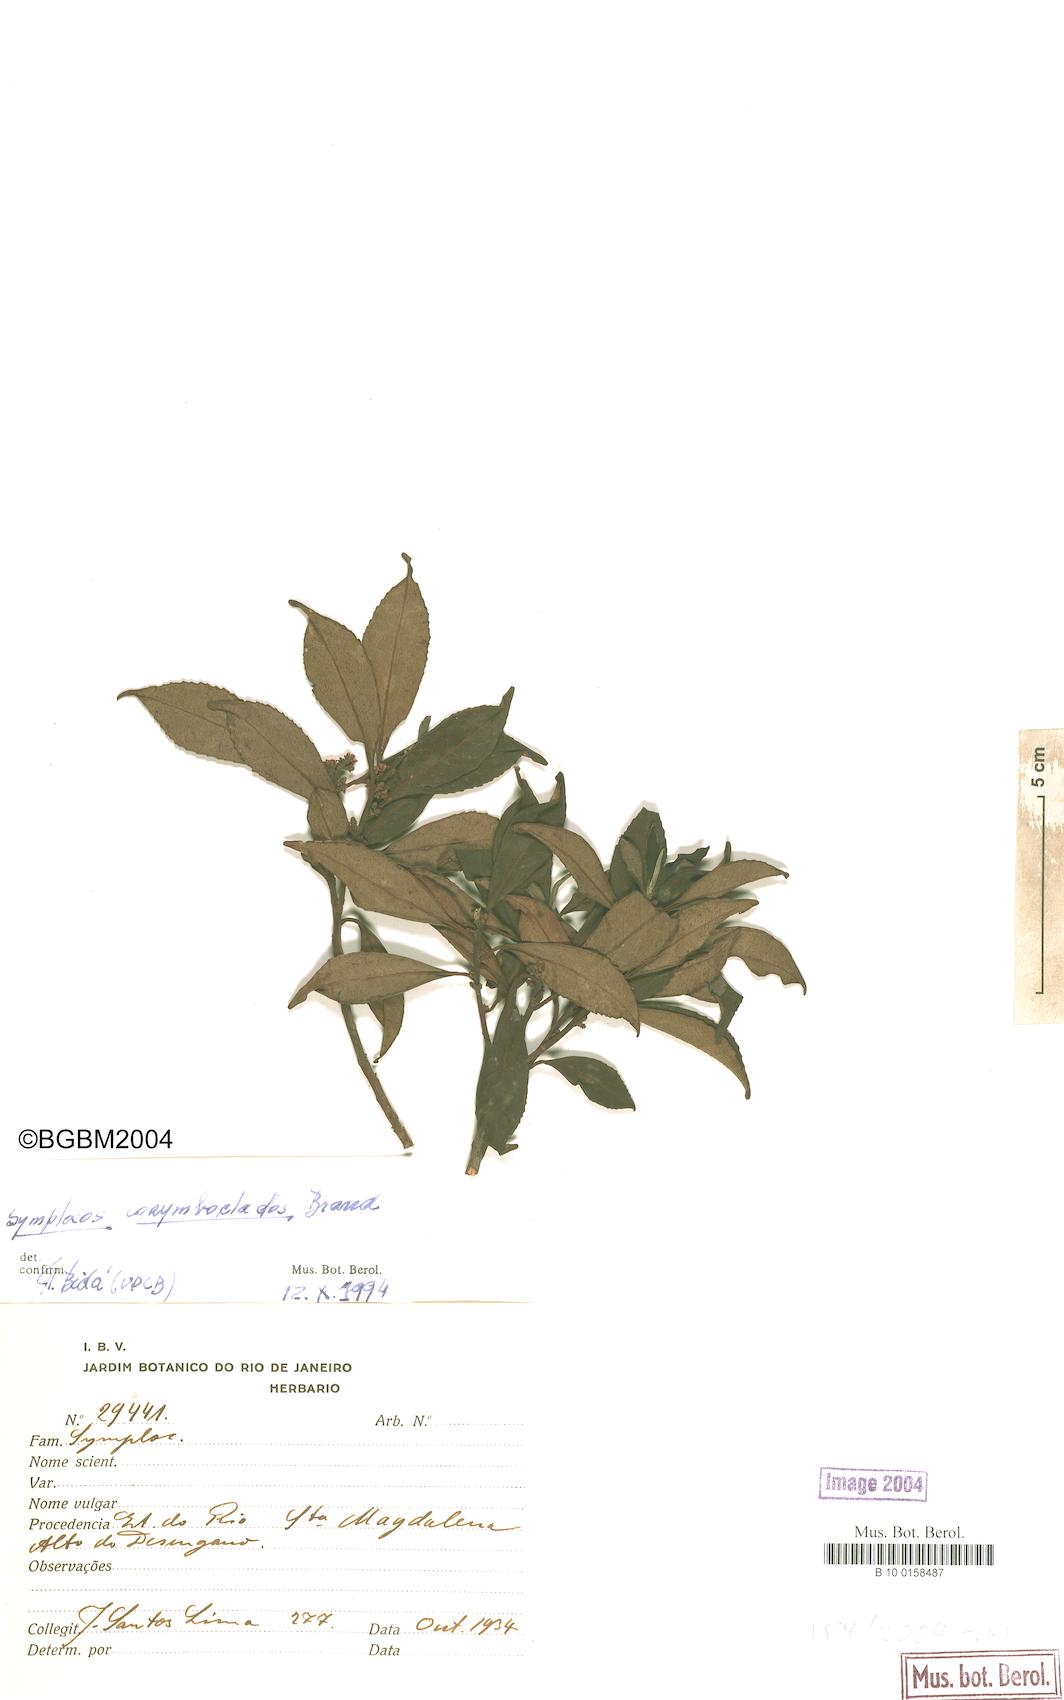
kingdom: Plantae
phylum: Tracheophyta
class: Magnoliopsida
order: Ericales
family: Symplocaceae
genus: Symplocos
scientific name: Symplocos corymboclados
